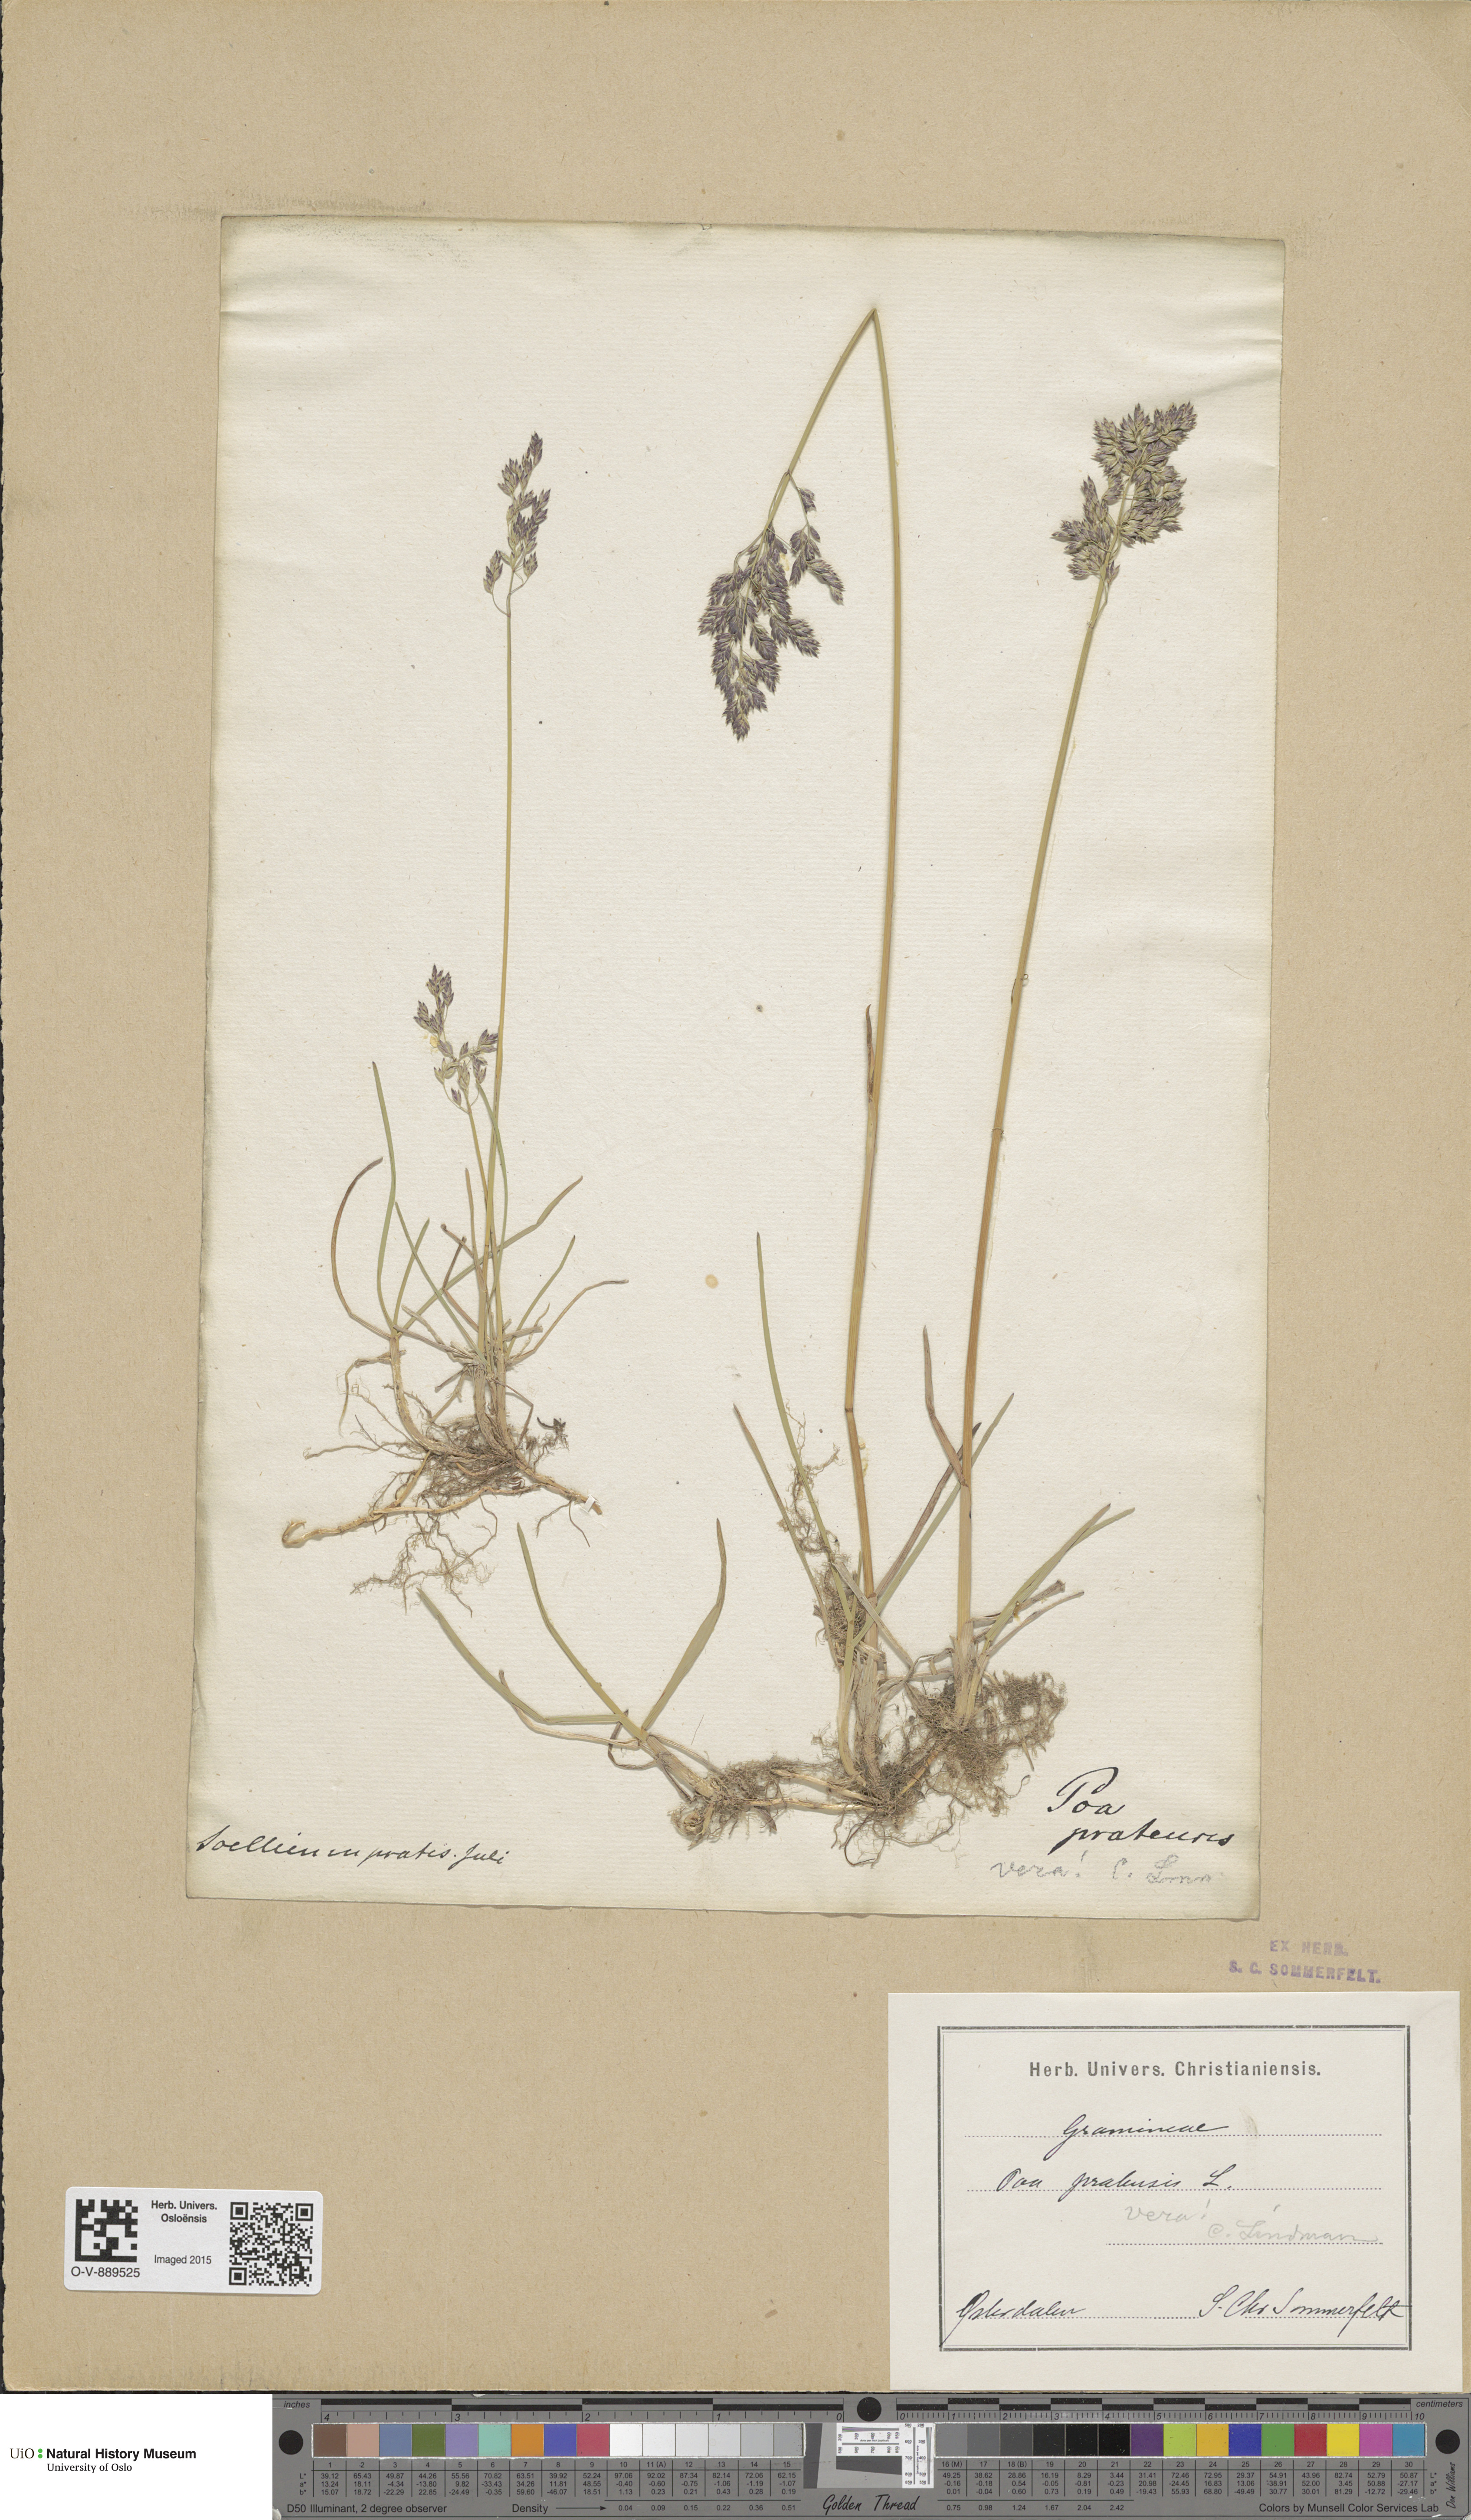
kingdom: Plantae
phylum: Tracheophyta
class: Liliopsida
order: Poales
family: Poaceae
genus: Poa
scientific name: Poa pratensis
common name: Kentucky bluegrass
